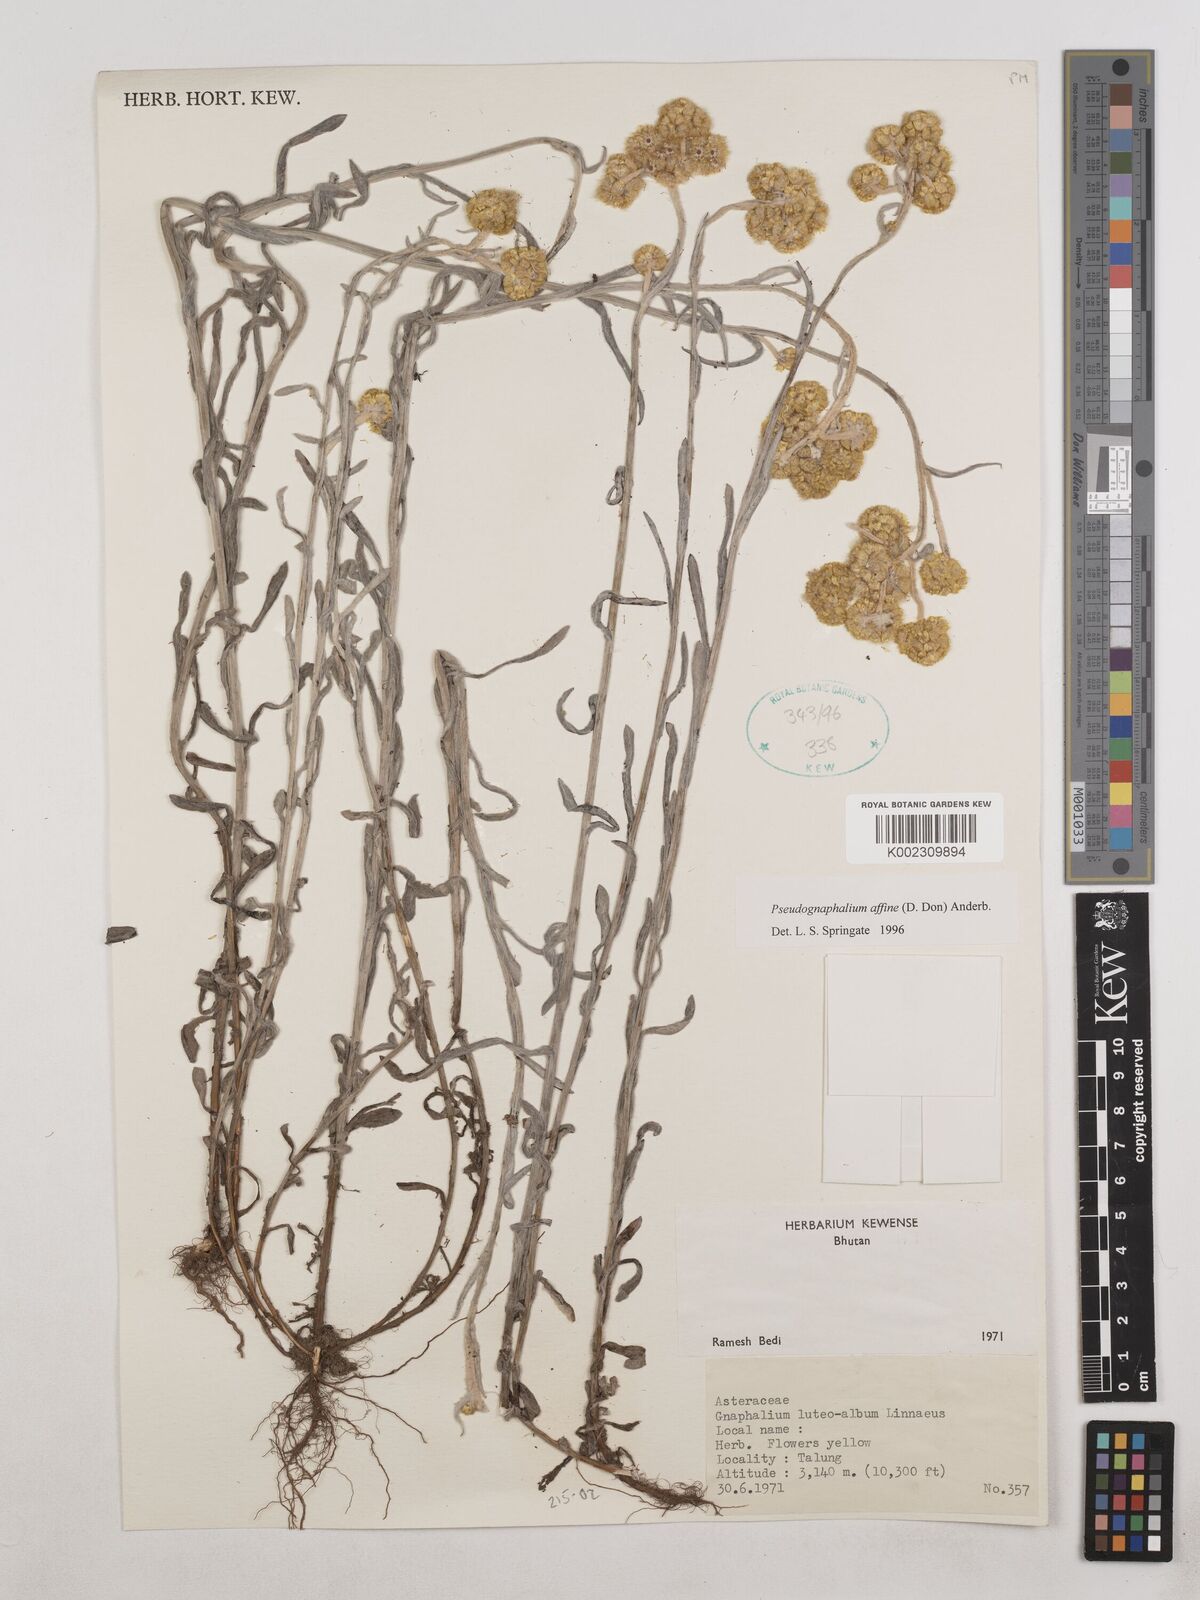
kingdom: Plantae
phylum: Tracheophyta
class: Magnoliopsida
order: Asterales
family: Asteraceae
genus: Pseudognaphalium
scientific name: Pseudognaphalium affine
